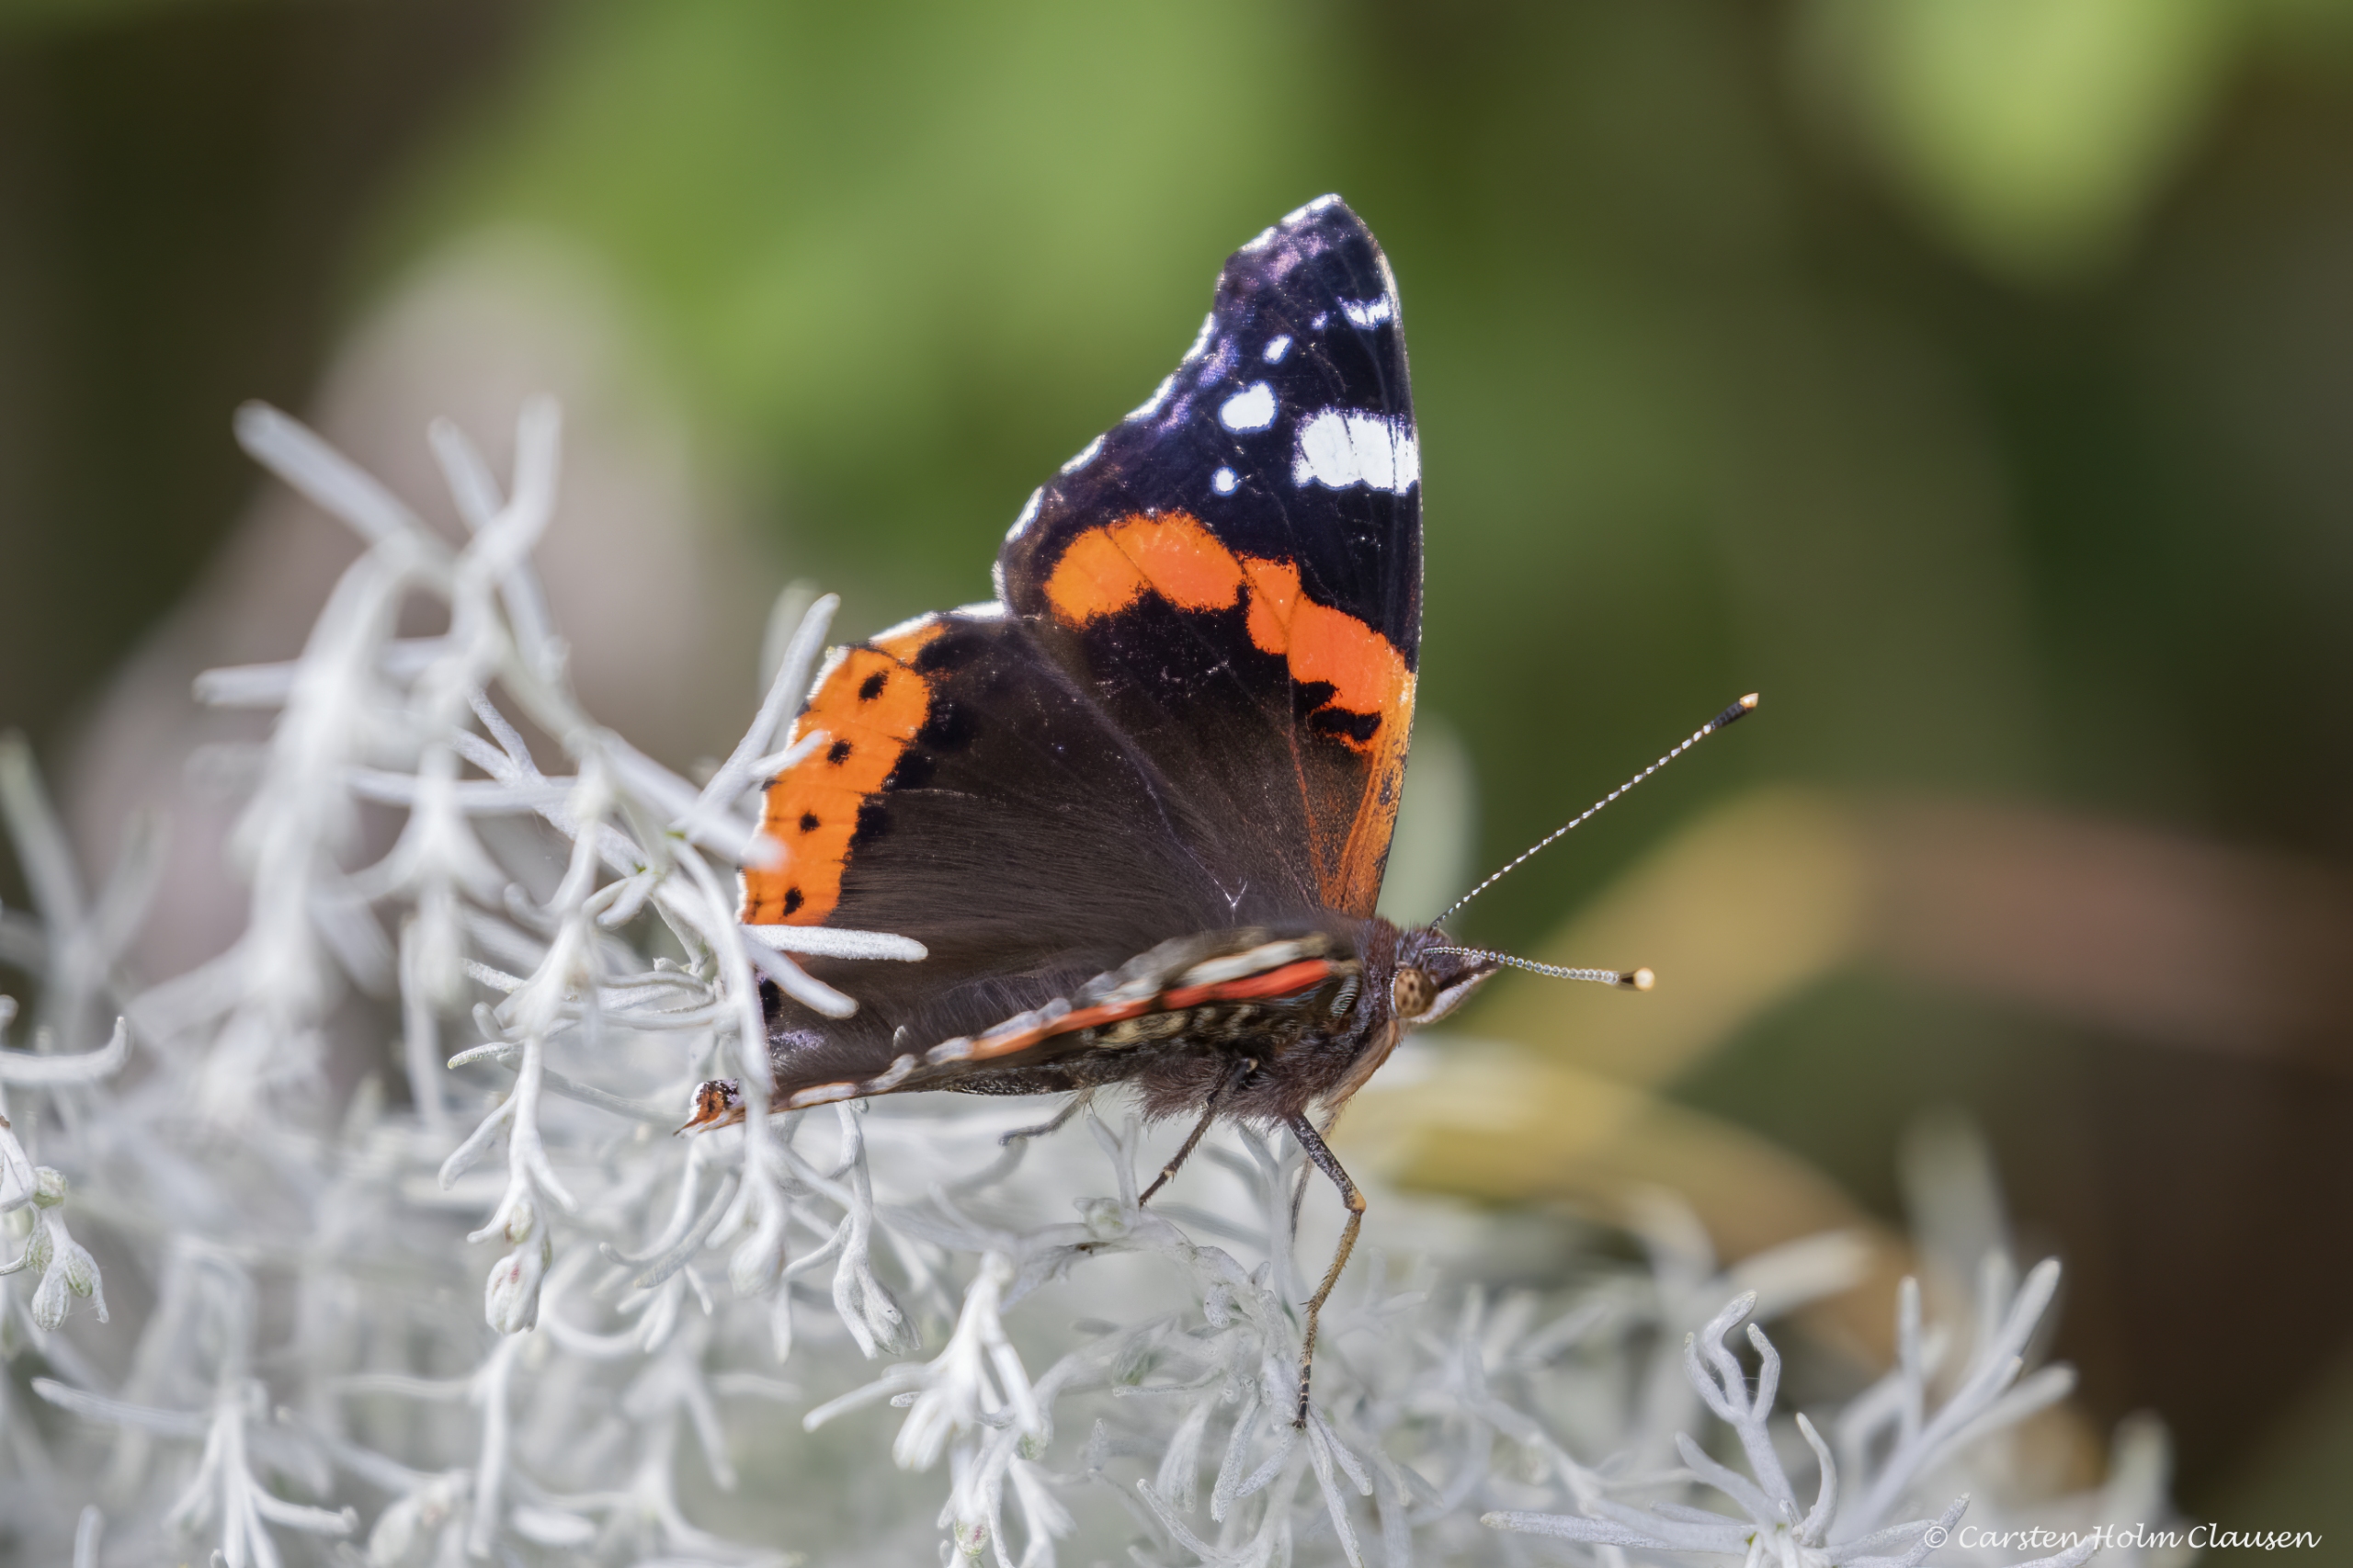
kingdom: Animalia
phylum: Arthropoda
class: Insecta
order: Lepidoptera
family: Nymphalidae
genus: Vanessa
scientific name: Vanessa atalanta
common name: Admiral
